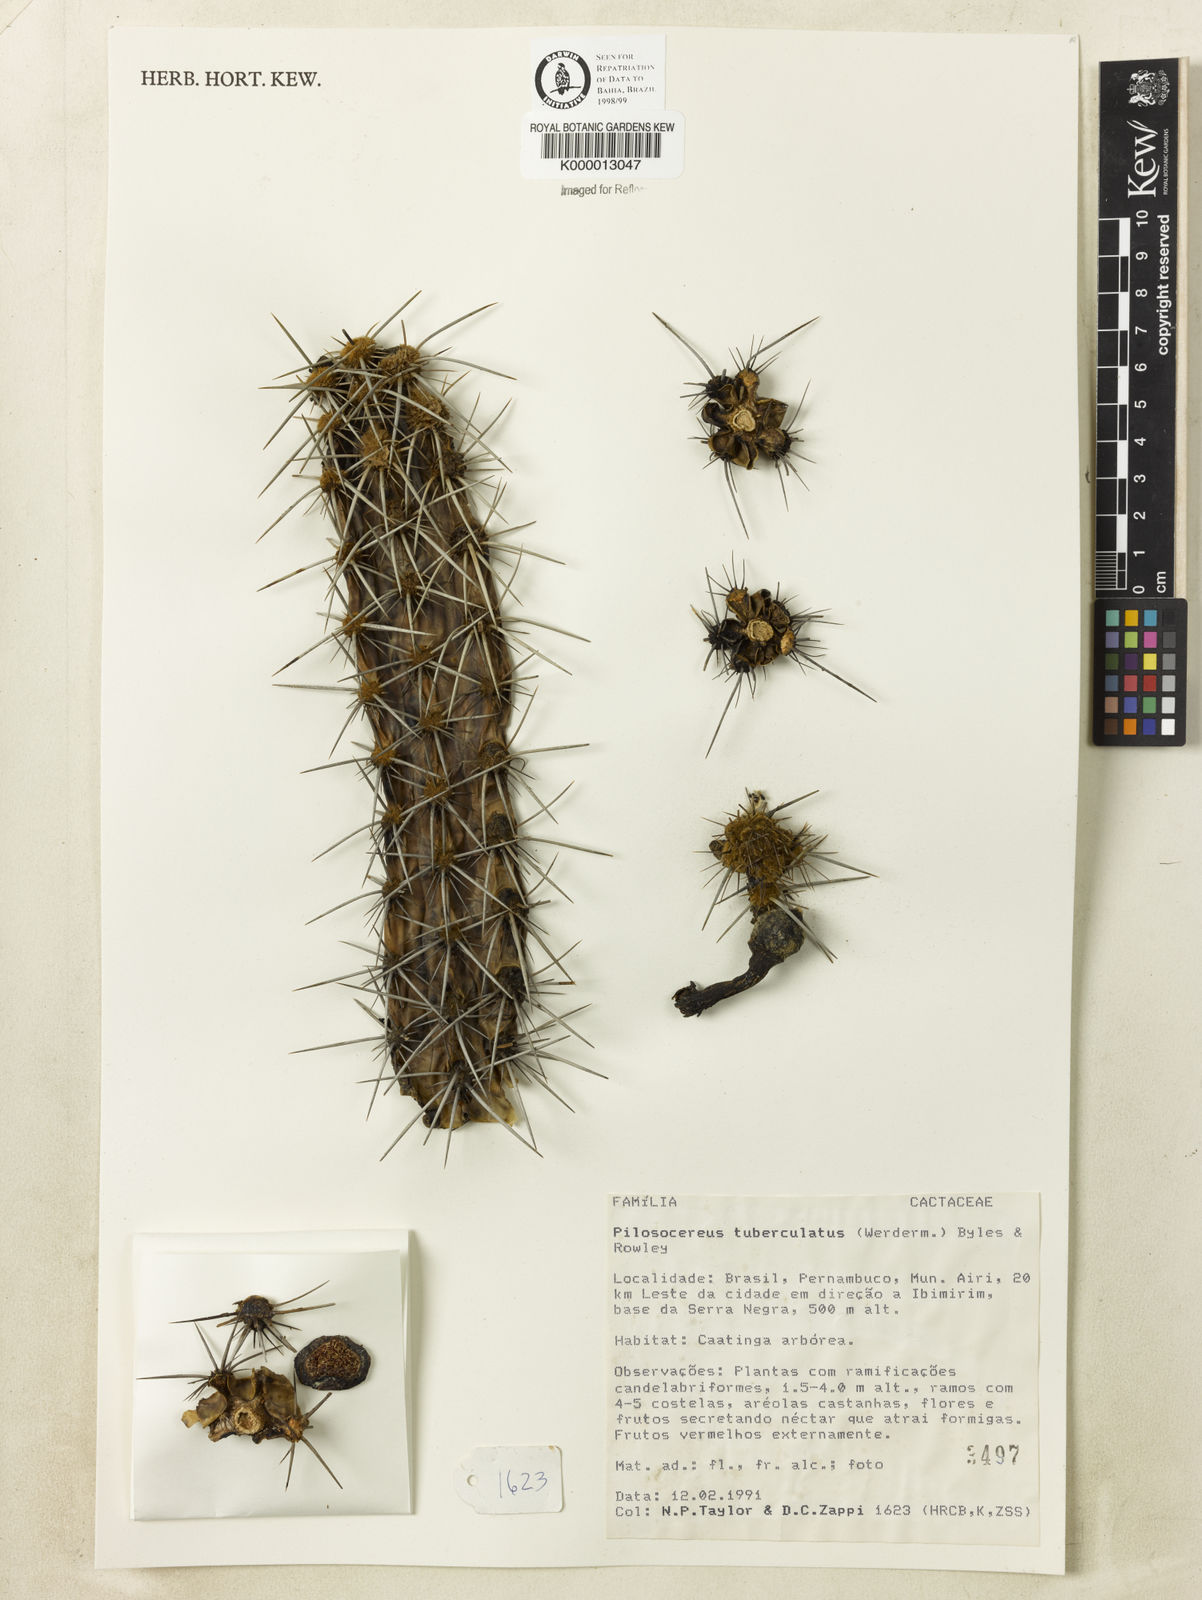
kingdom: Plantae
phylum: Tracheophyta
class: Magnoliopsida
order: Caryophyllales
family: Cactaceae
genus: Xiquexique
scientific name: Xiquexique tuberculatus
